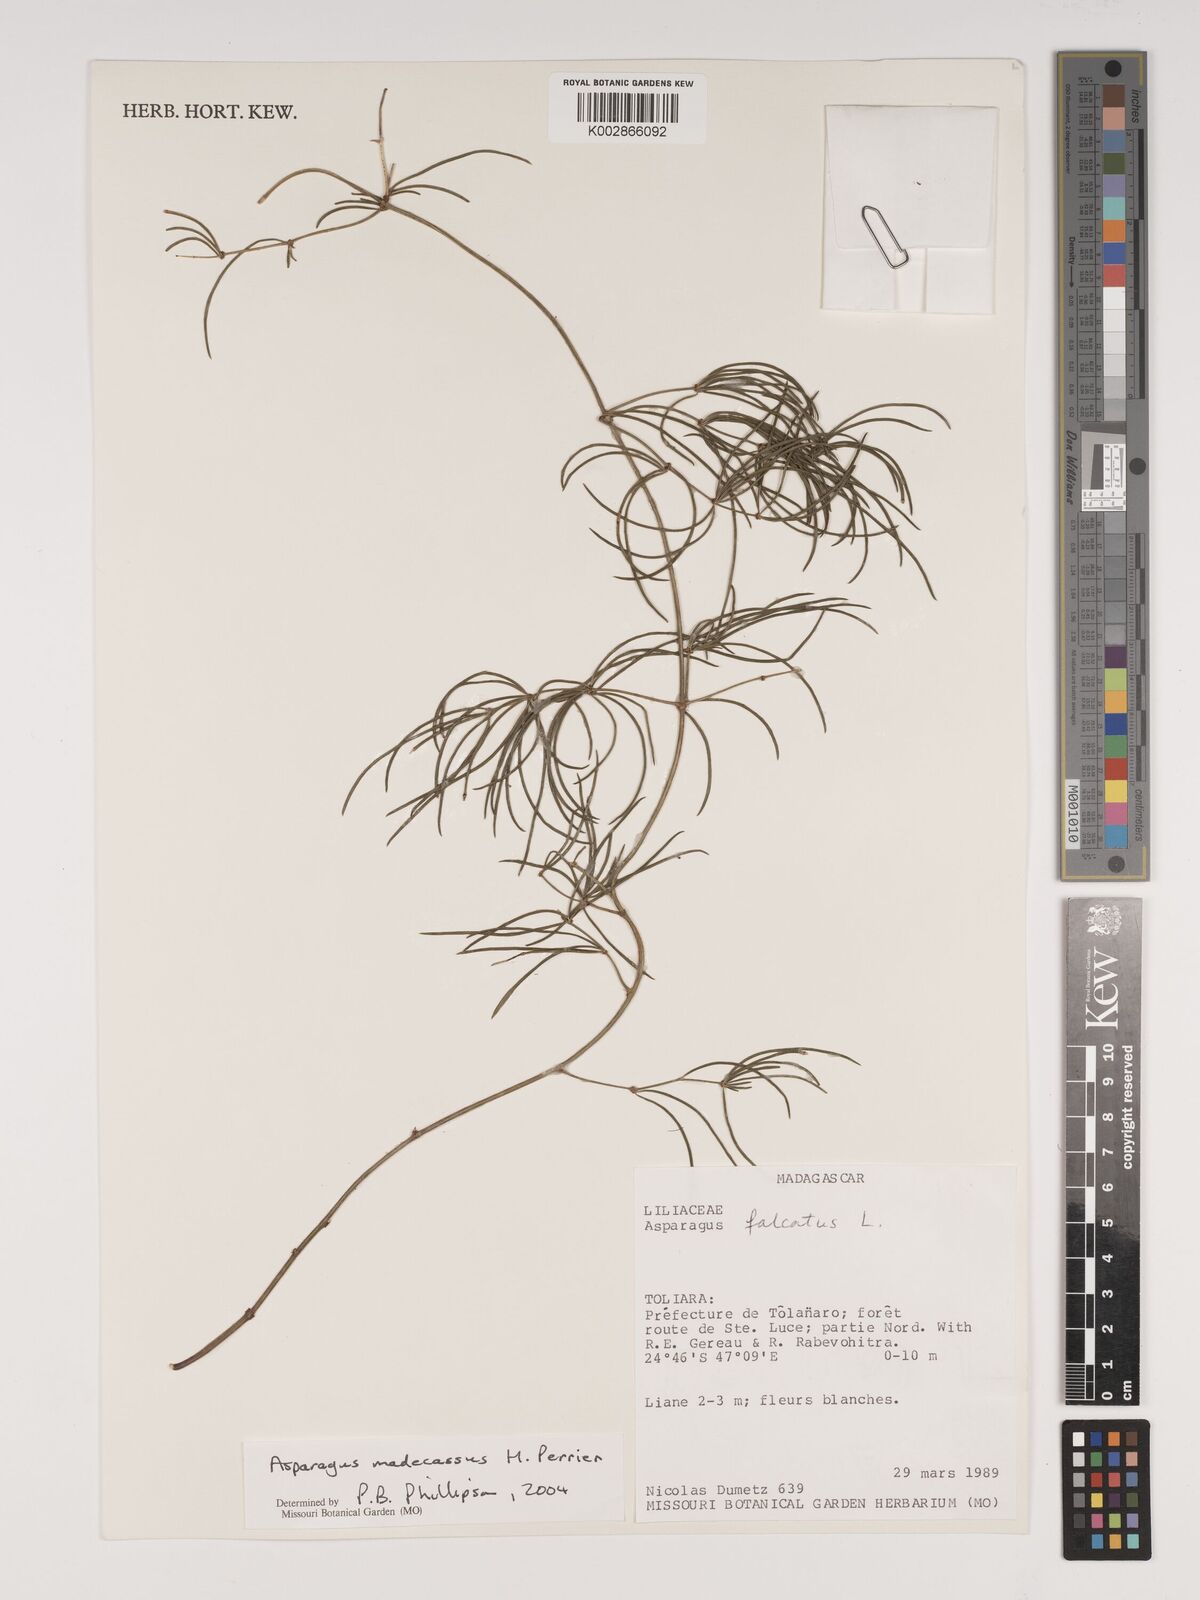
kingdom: Plantae
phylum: Tracheophyta
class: Liliopsida
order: Asparagales
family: Asparagaceae
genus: Asparagus
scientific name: Asparagus madecassus
